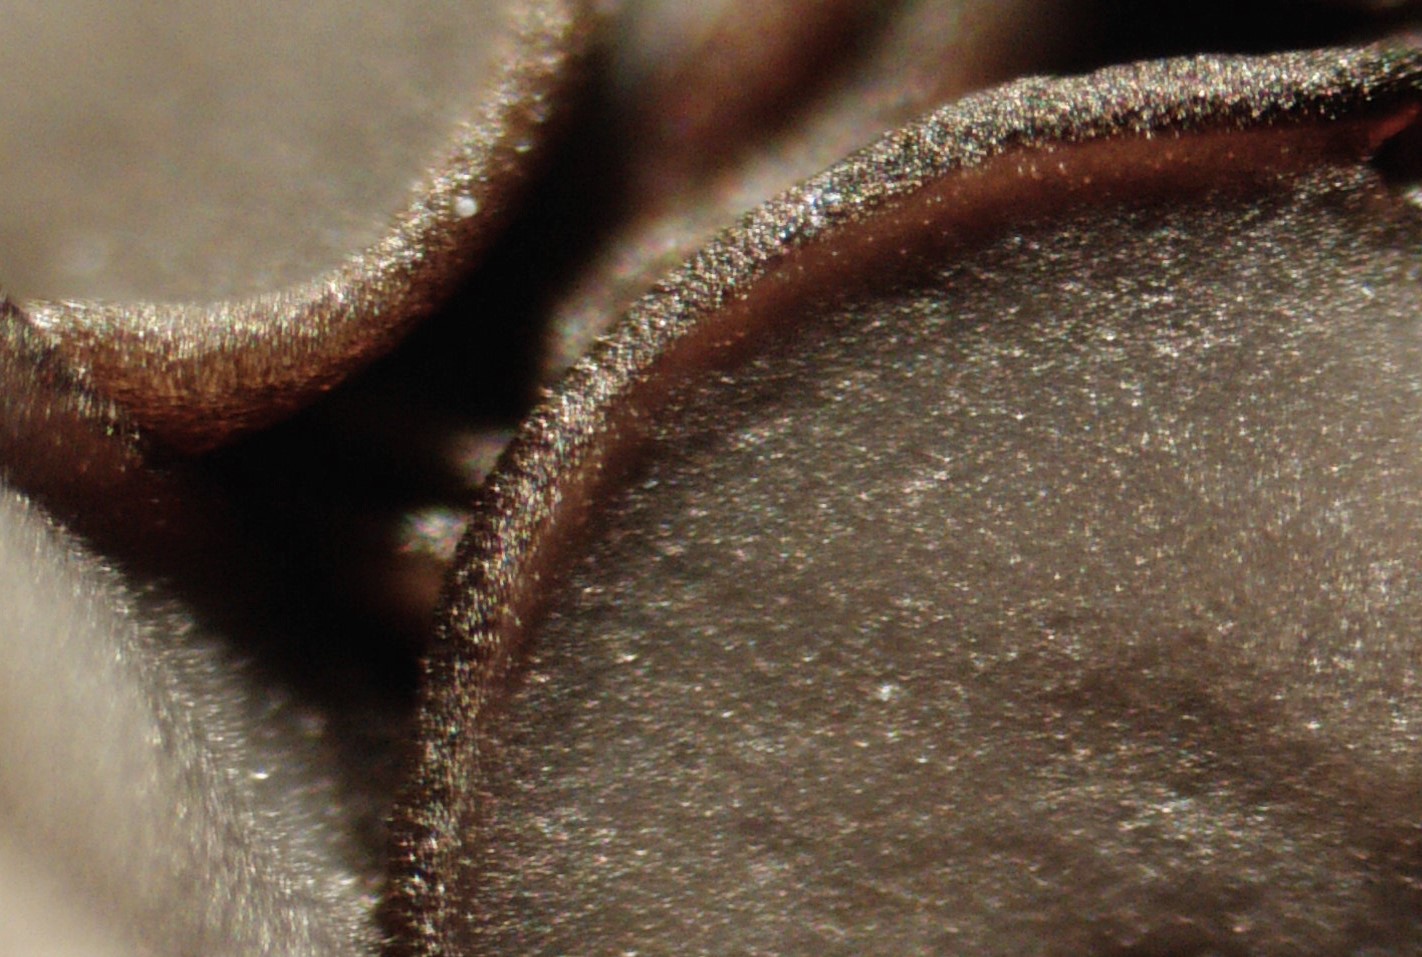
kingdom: Fungi
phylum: Ascomycota
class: Leotiomycetes
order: Helotiales
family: Mollisiaceae
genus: Mollisia
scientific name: Mollisia
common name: gråskive
